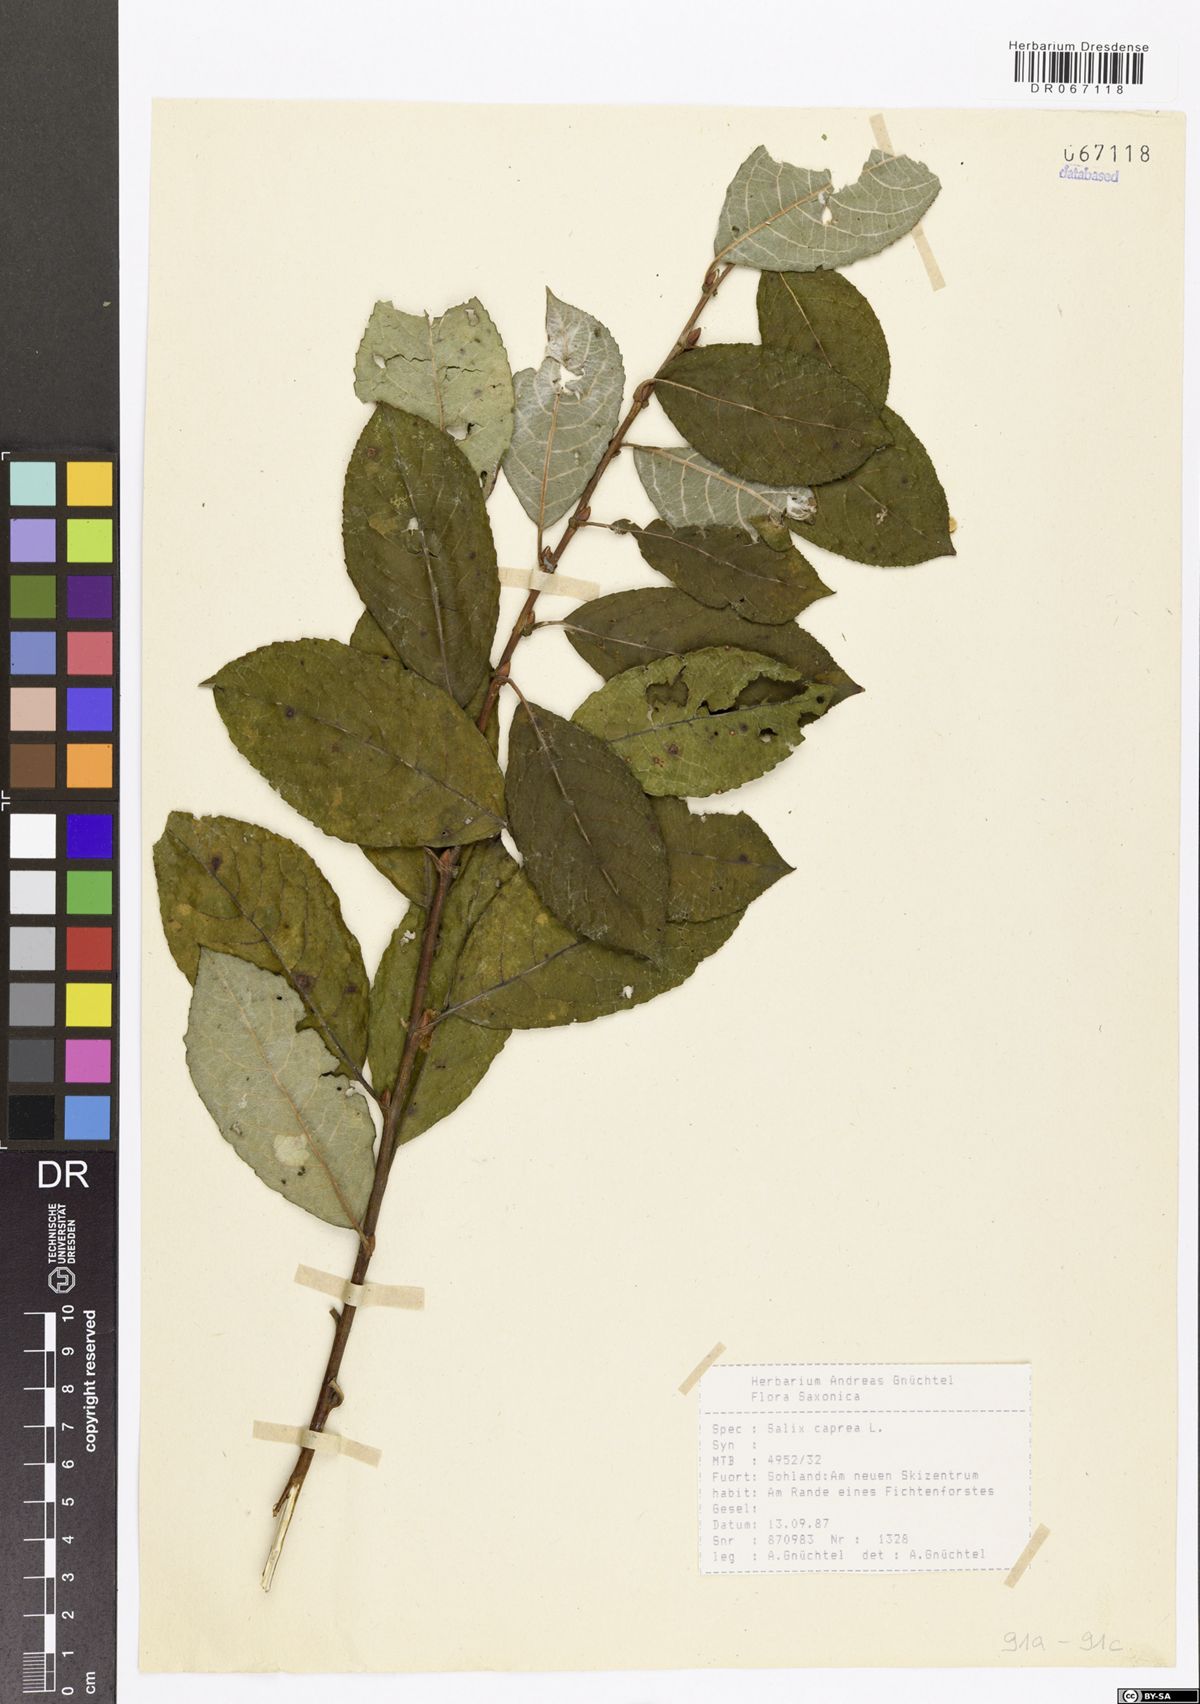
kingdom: Plantae
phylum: Tracheophyta
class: Magnoliopsida
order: Malpighiales
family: Salicaceae
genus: Salix
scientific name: Salix caprea
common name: Goat willow
